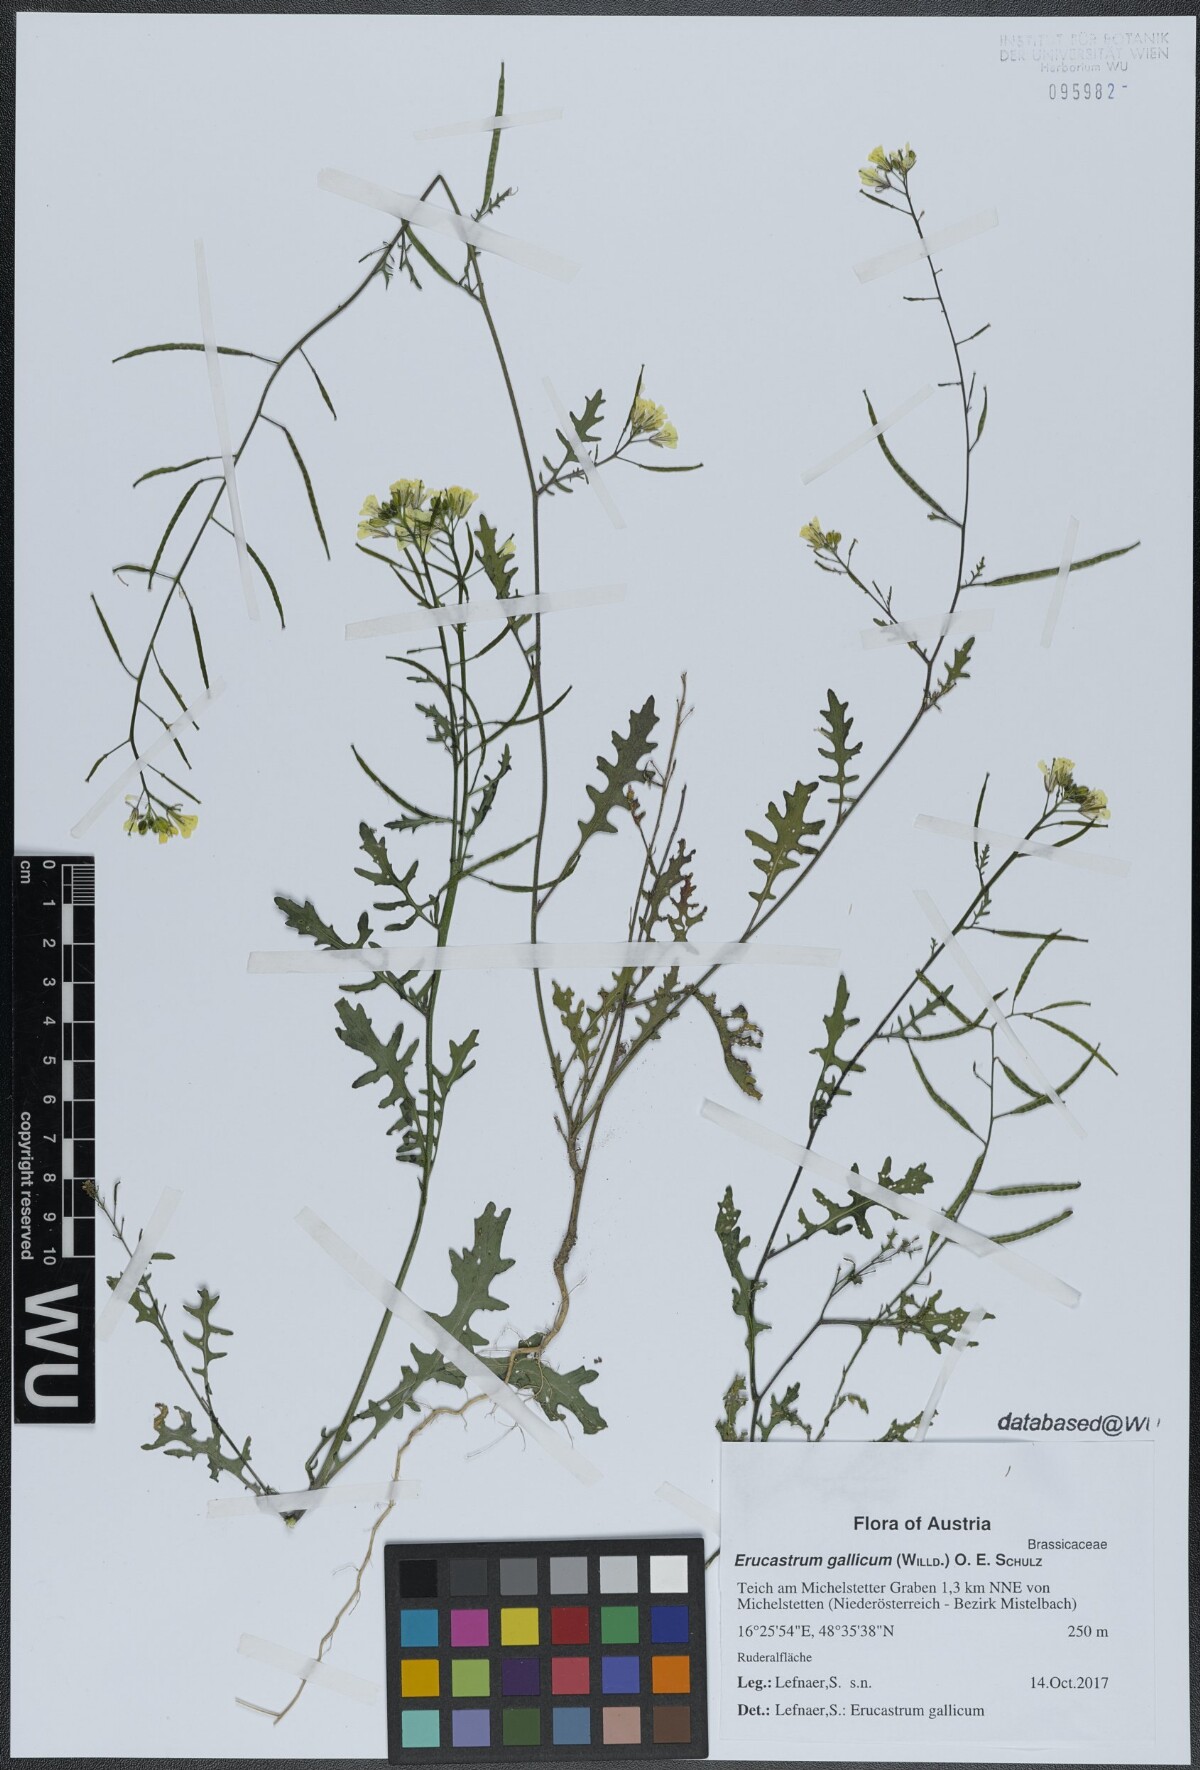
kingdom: Plantae
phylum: Tracheophyta
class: Magnoliopsida
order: Brassicales
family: Brassicaceae
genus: Erucastrum
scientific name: Erucastrum gallicum
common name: Hairy rocket
